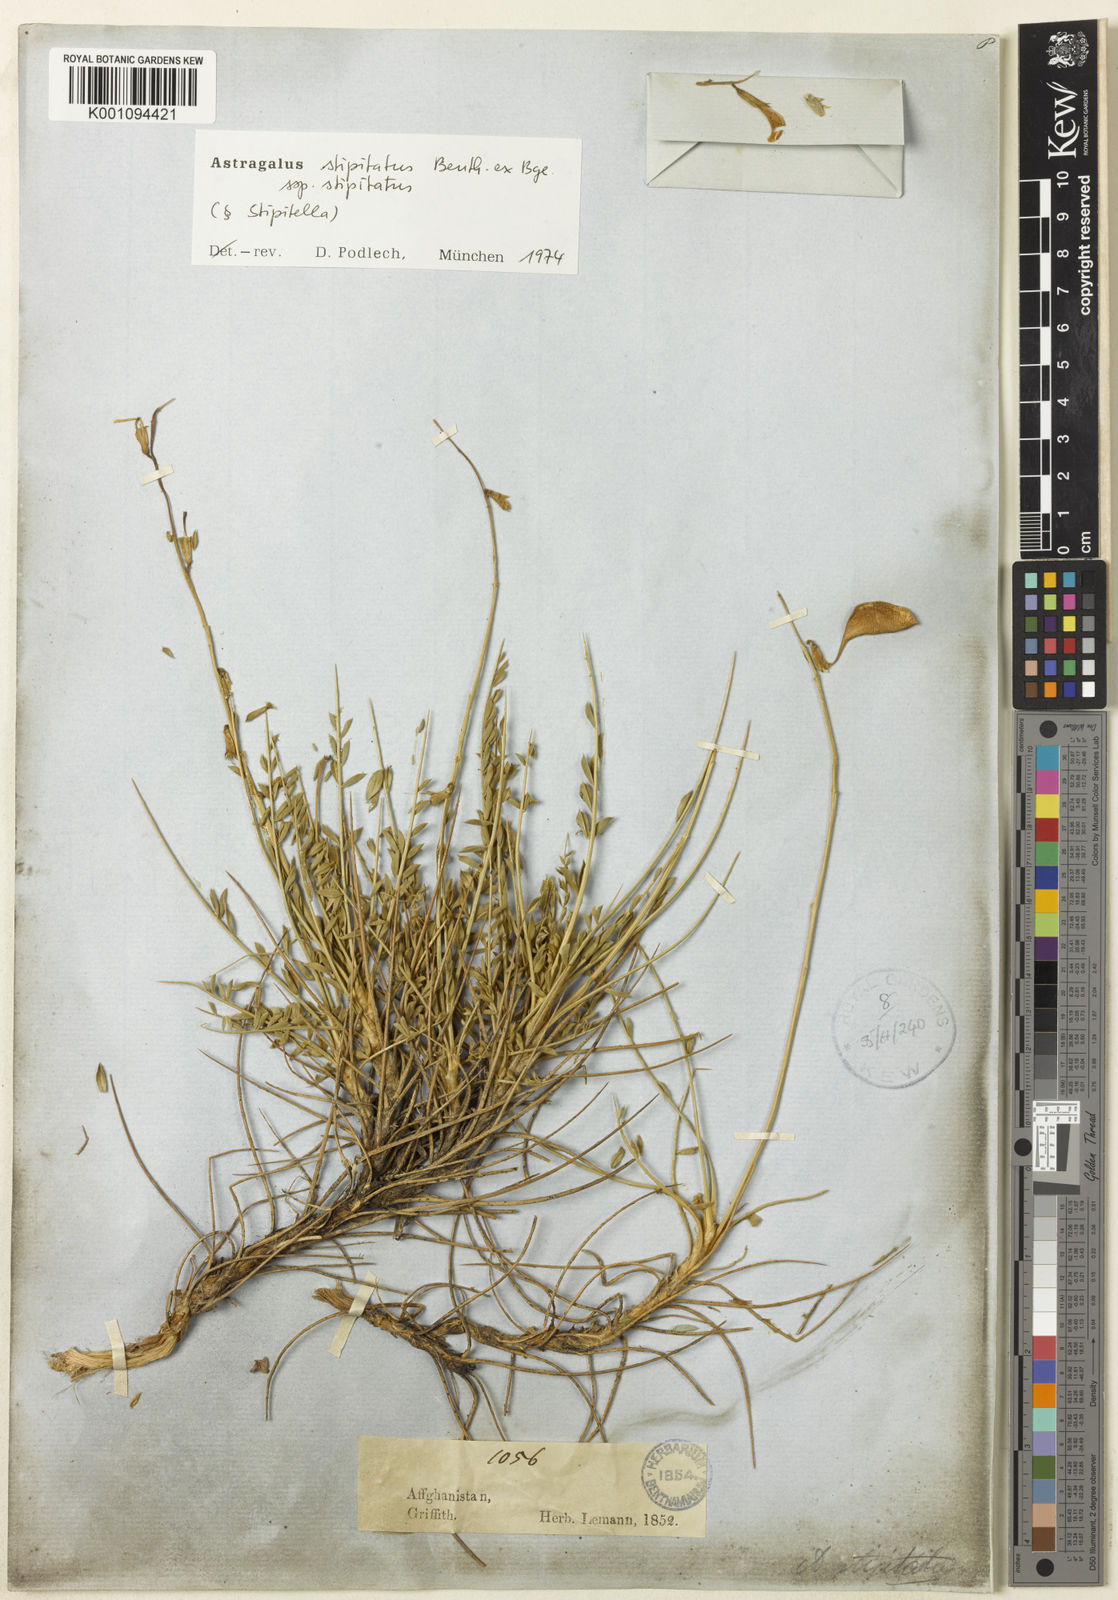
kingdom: Plantae
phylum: Tracheophyta
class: Magnoliopsida
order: Fabales
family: Fabaceae
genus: Astragalus
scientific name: Astragalus stipitatus
